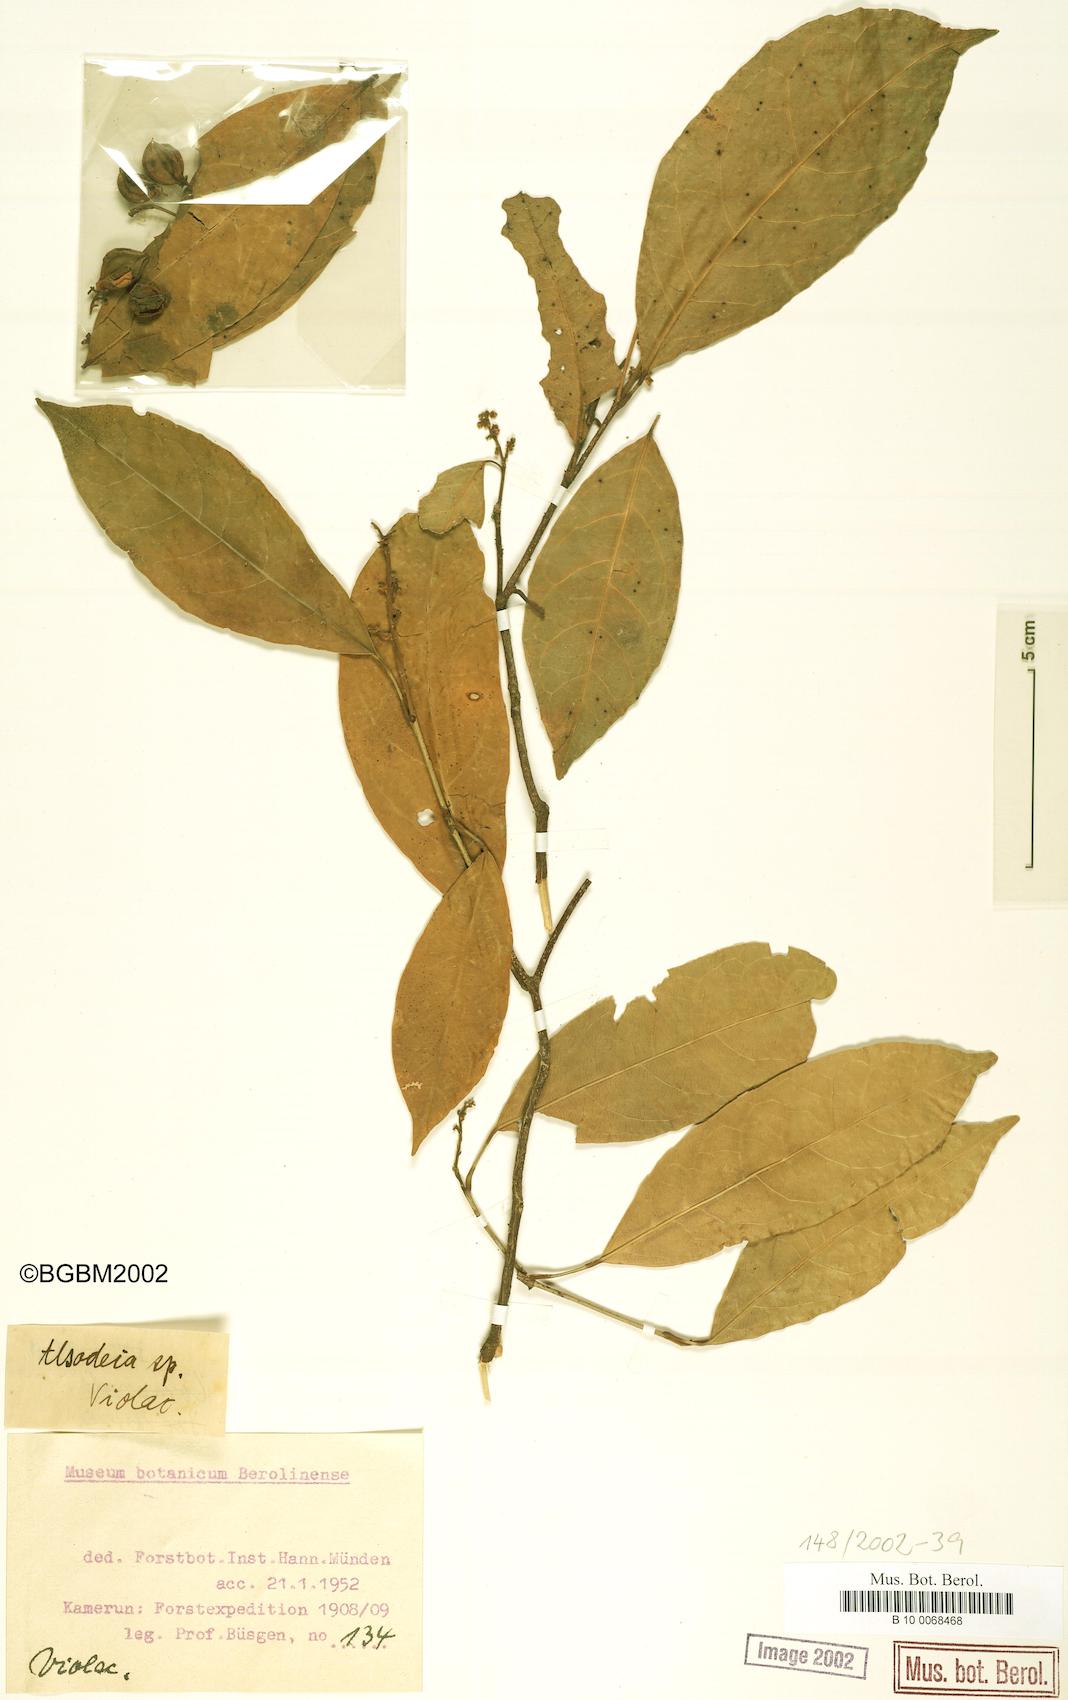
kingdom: Plantae
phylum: Tracheophyta
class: Magnoliopsida
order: Malpighiales
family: Violaceae
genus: Rinorea
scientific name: Rinorea
